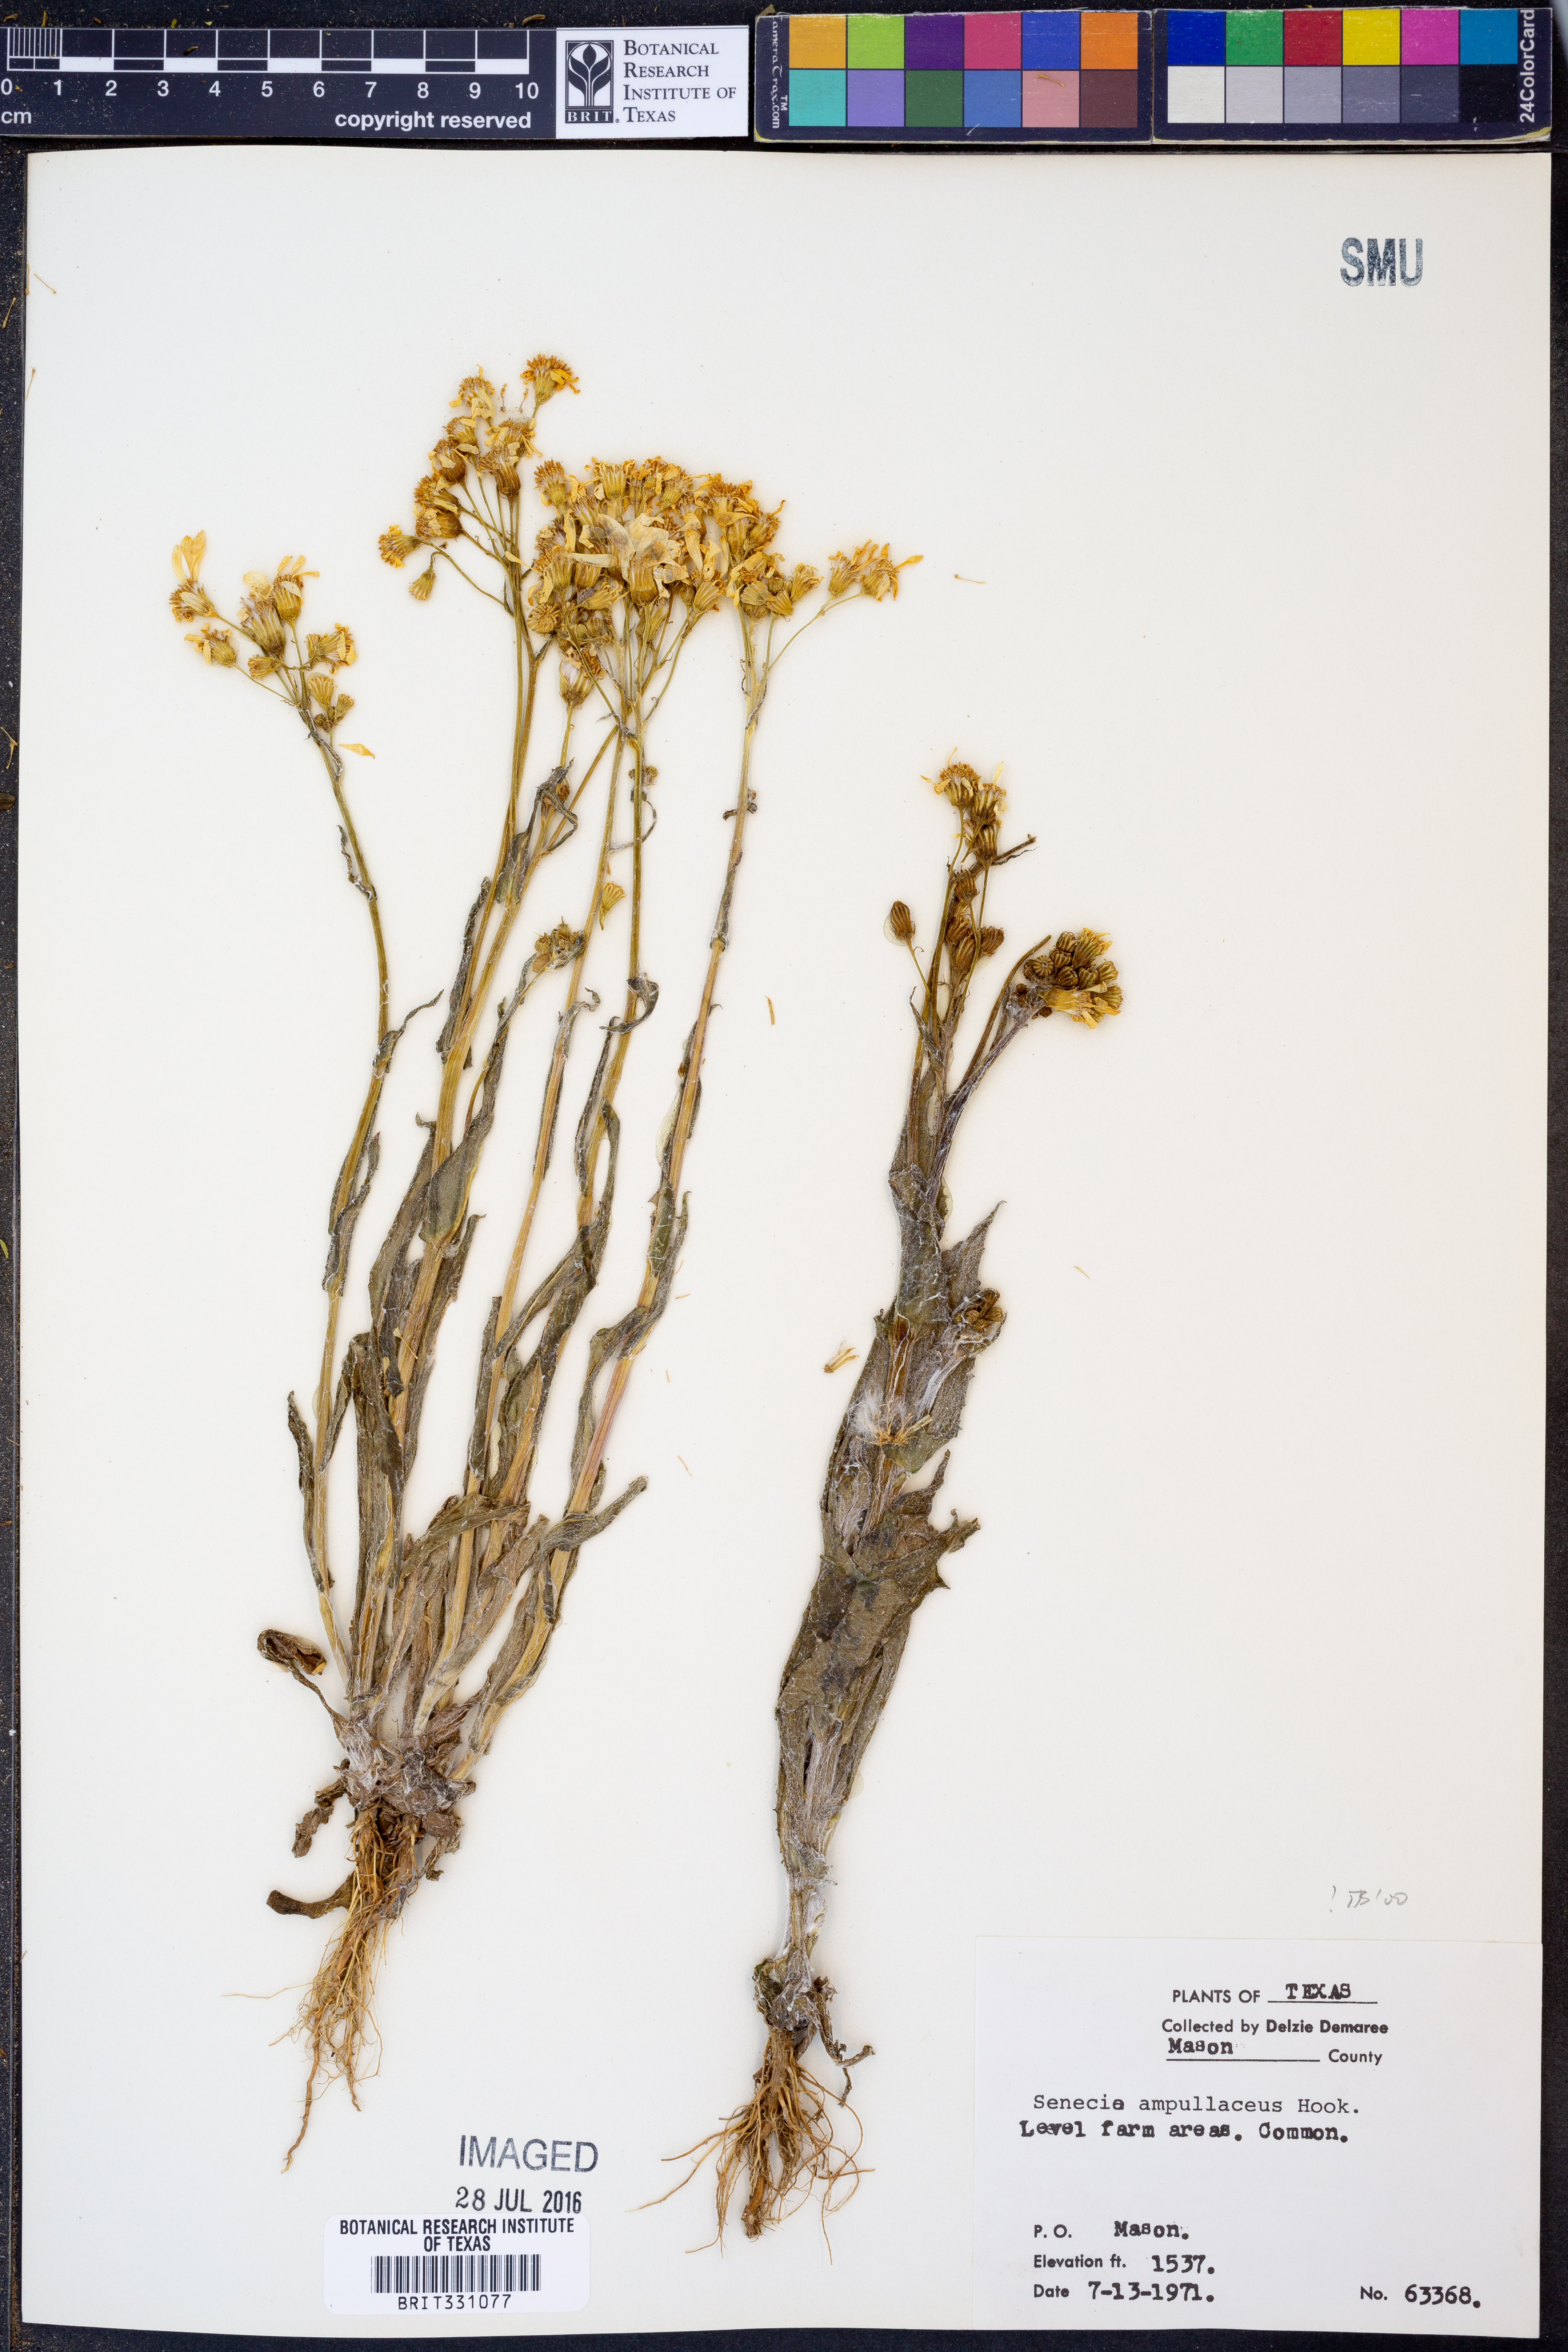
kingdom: Plantae
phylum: Tracheophyta
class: Magnoliopsida
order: Asterales
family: Asteraceae
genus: Senecio
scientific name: Senecio ampullaceus
